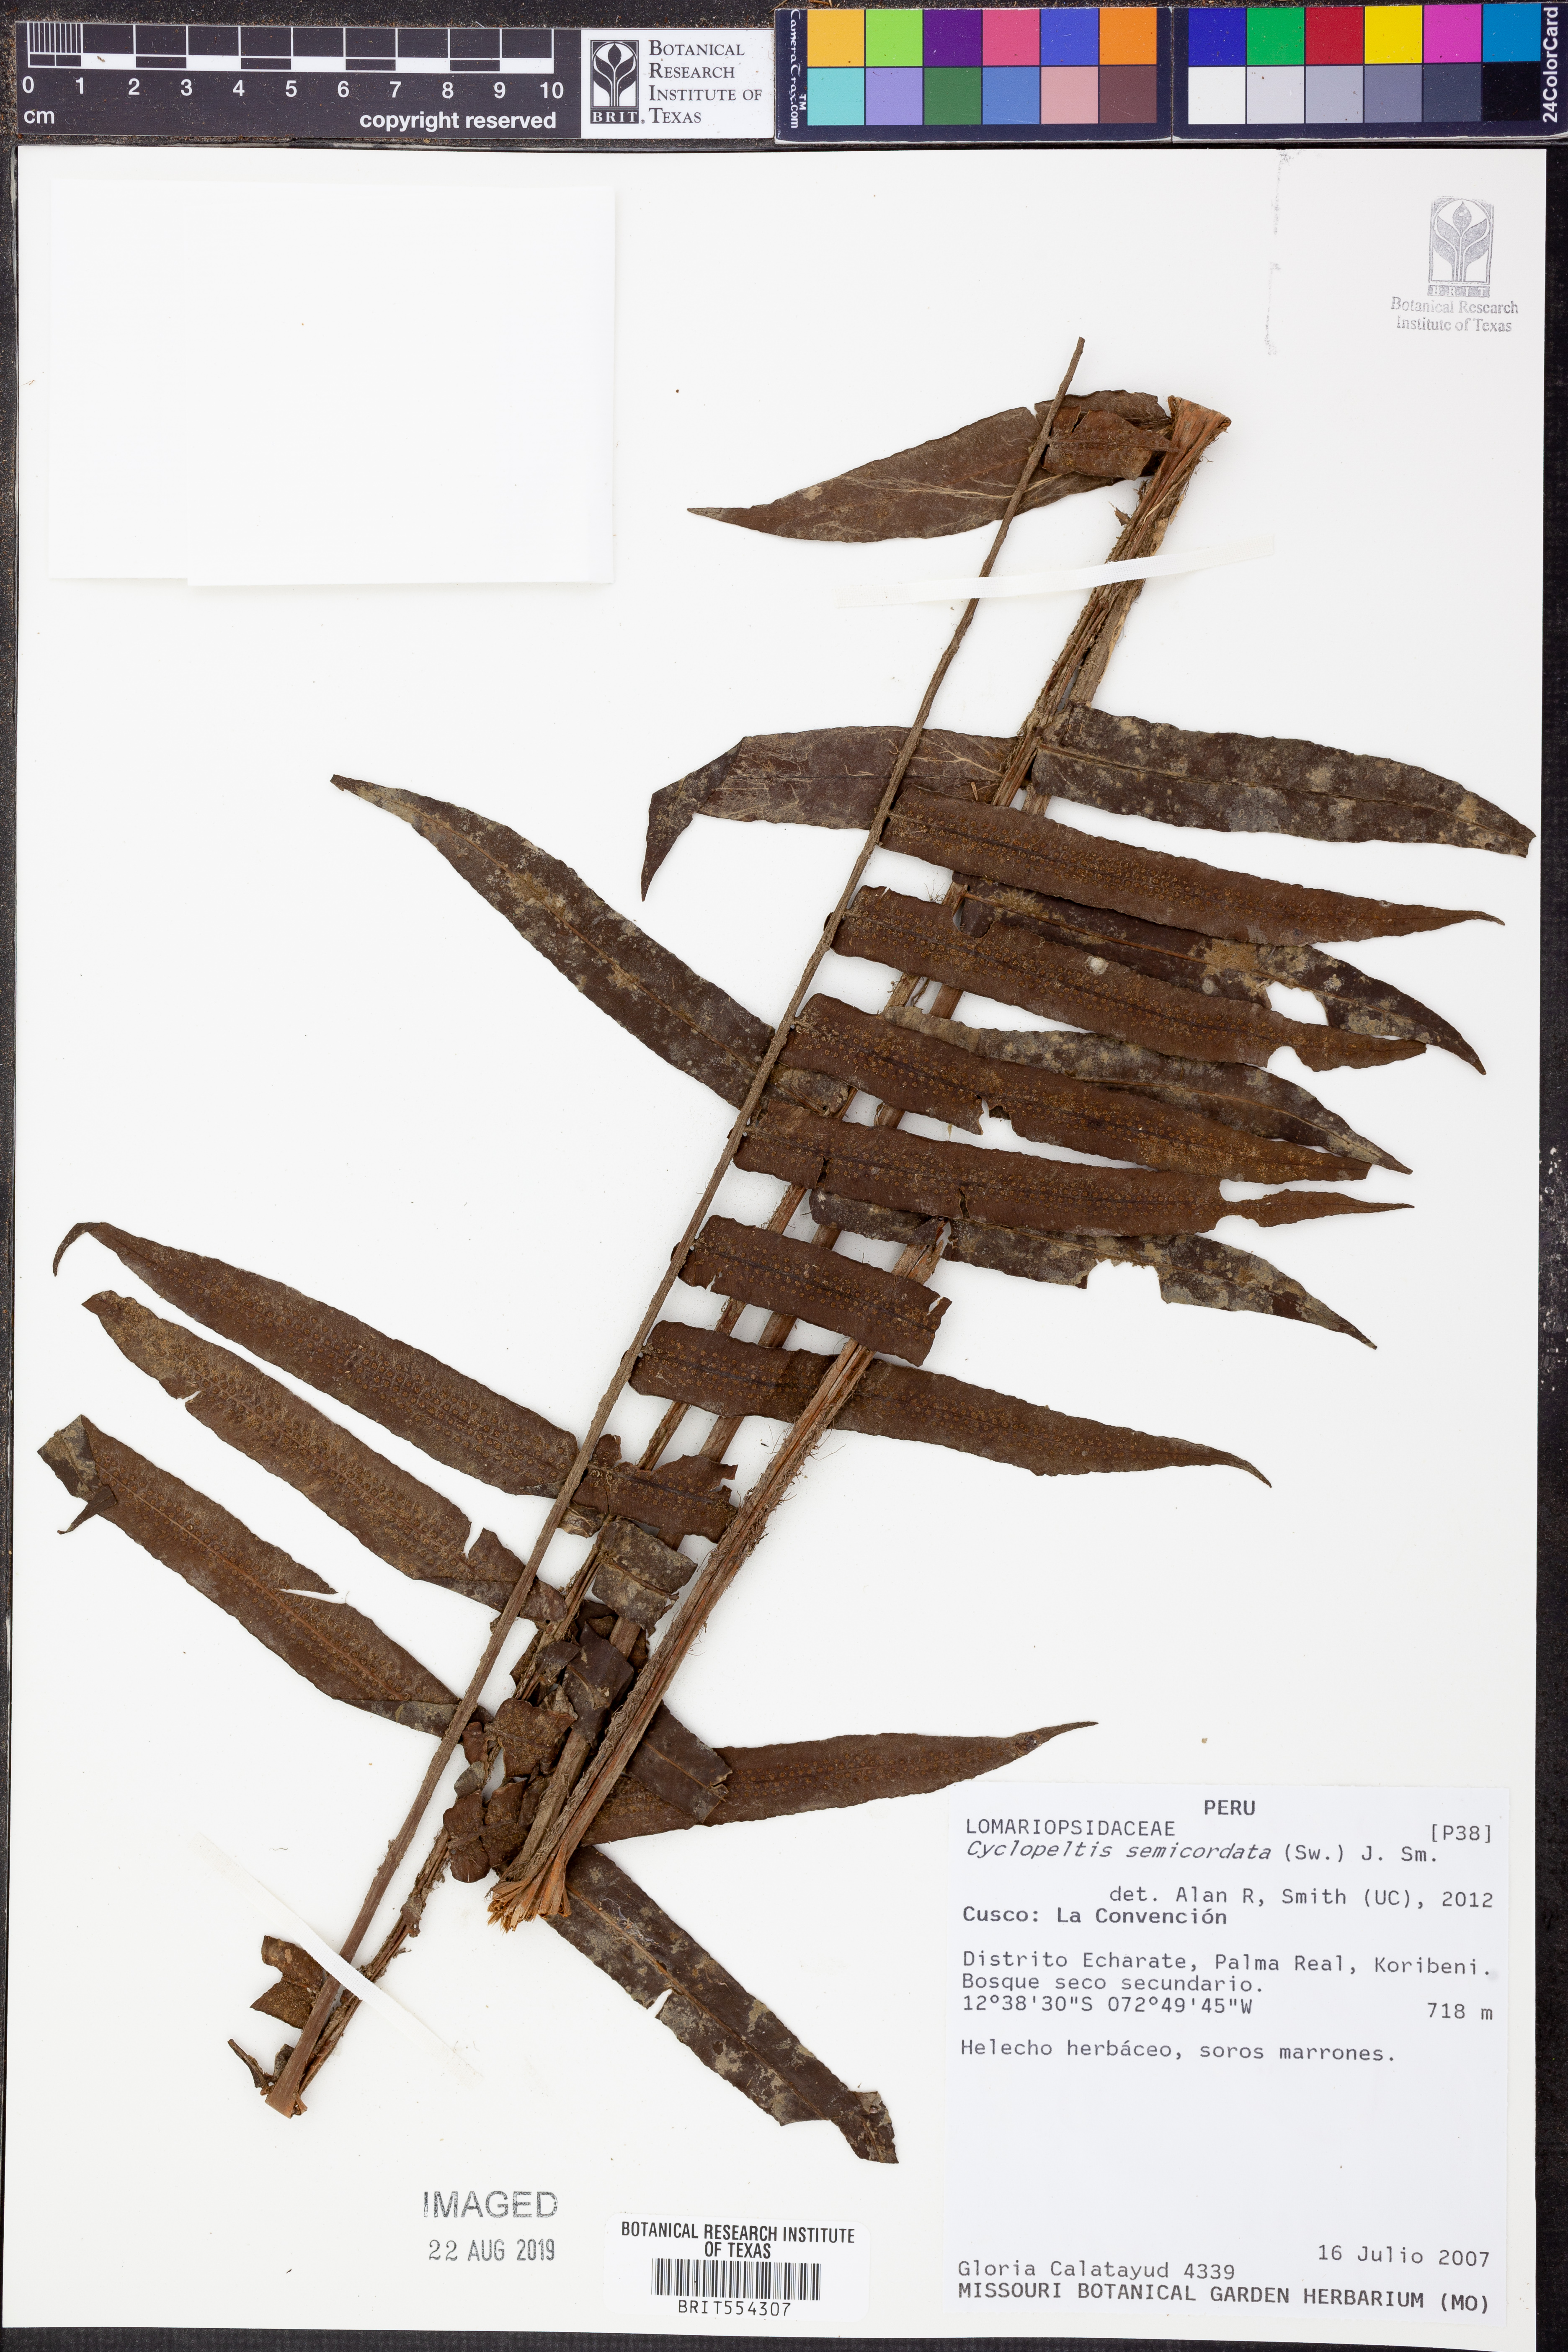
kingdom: Plantae
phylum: Tracheophyta
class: Polypodiopsida
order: Polypodiales
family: Lomariopsidaceae
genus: Cyclopeltis
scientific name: Cyclopeltis semicordata
